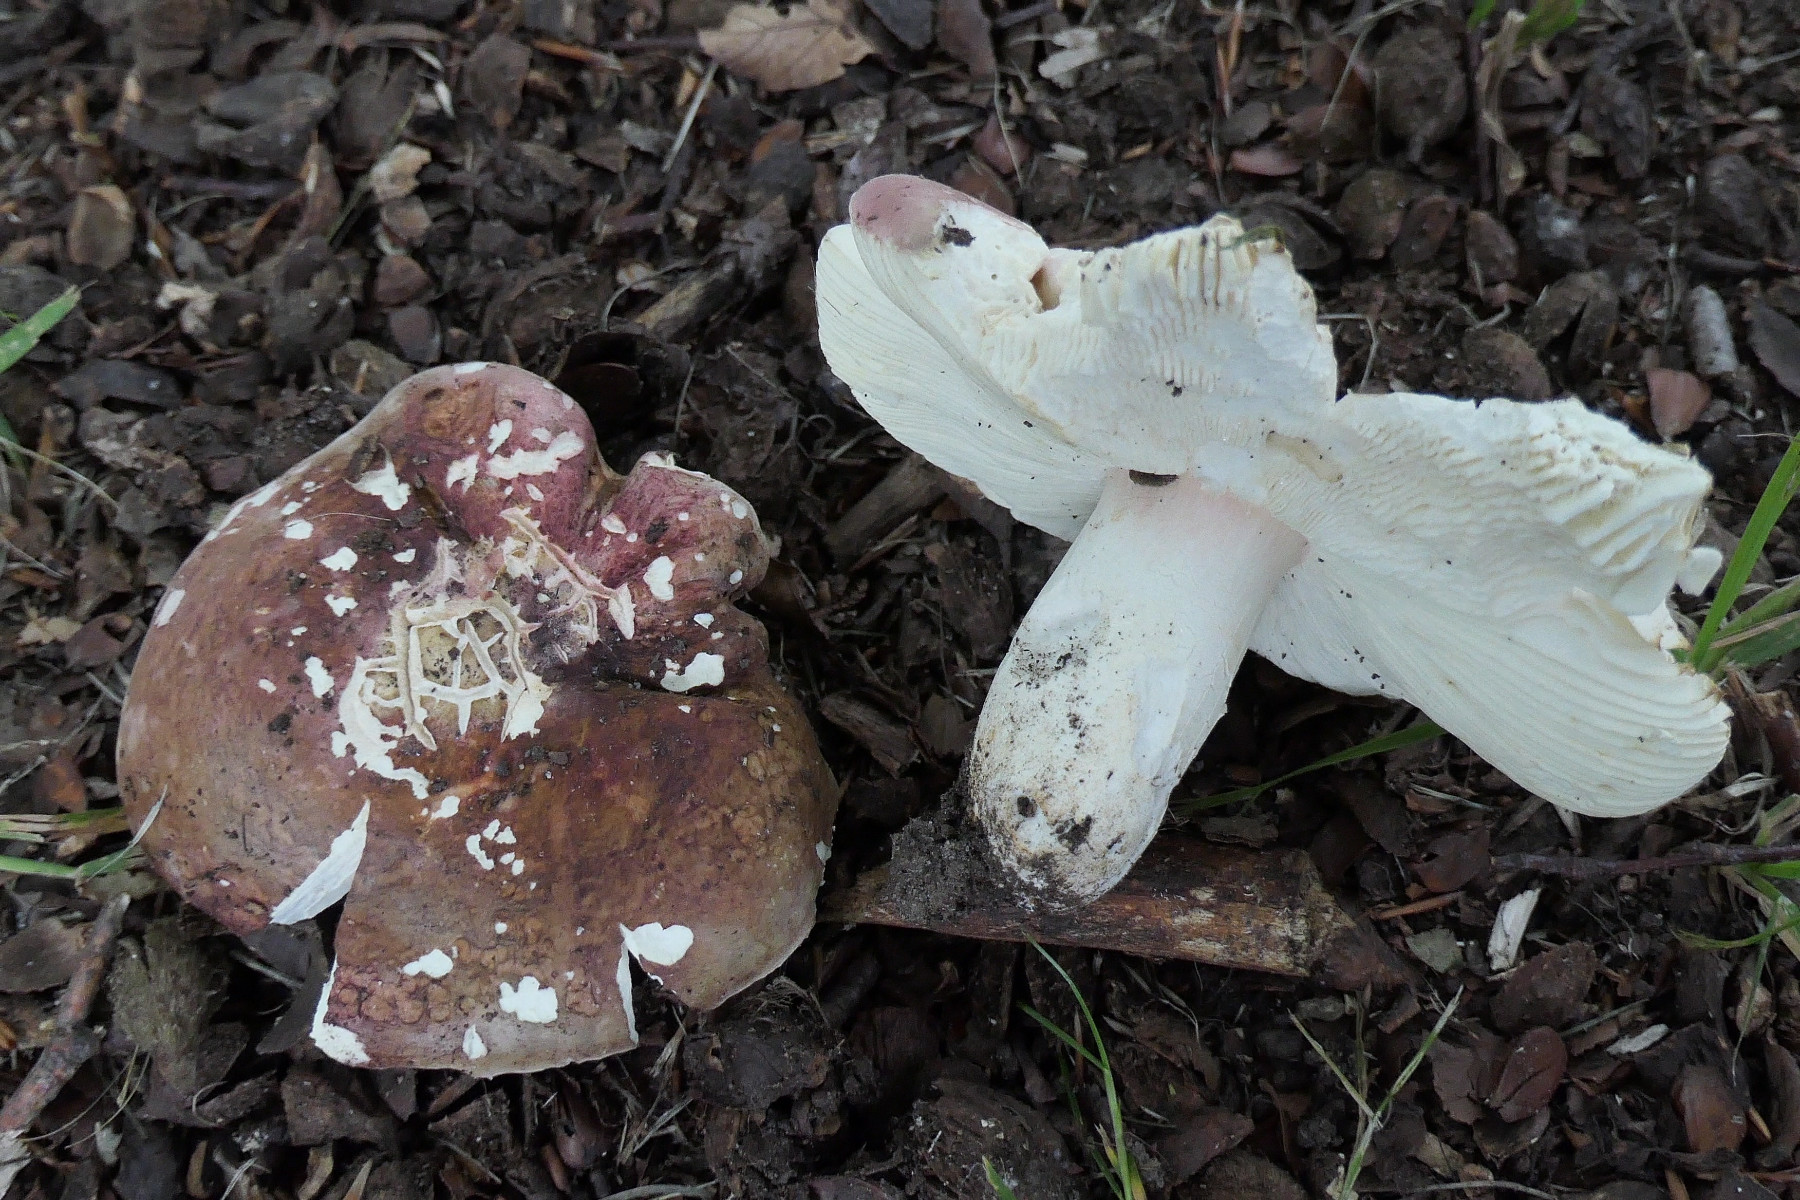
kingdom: Fungi
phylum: Basidiomycota
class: Agaricomycetes
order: Russulales
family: Russulaceae
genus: Russula
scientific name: Russula olivacea
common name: stor skørhat
